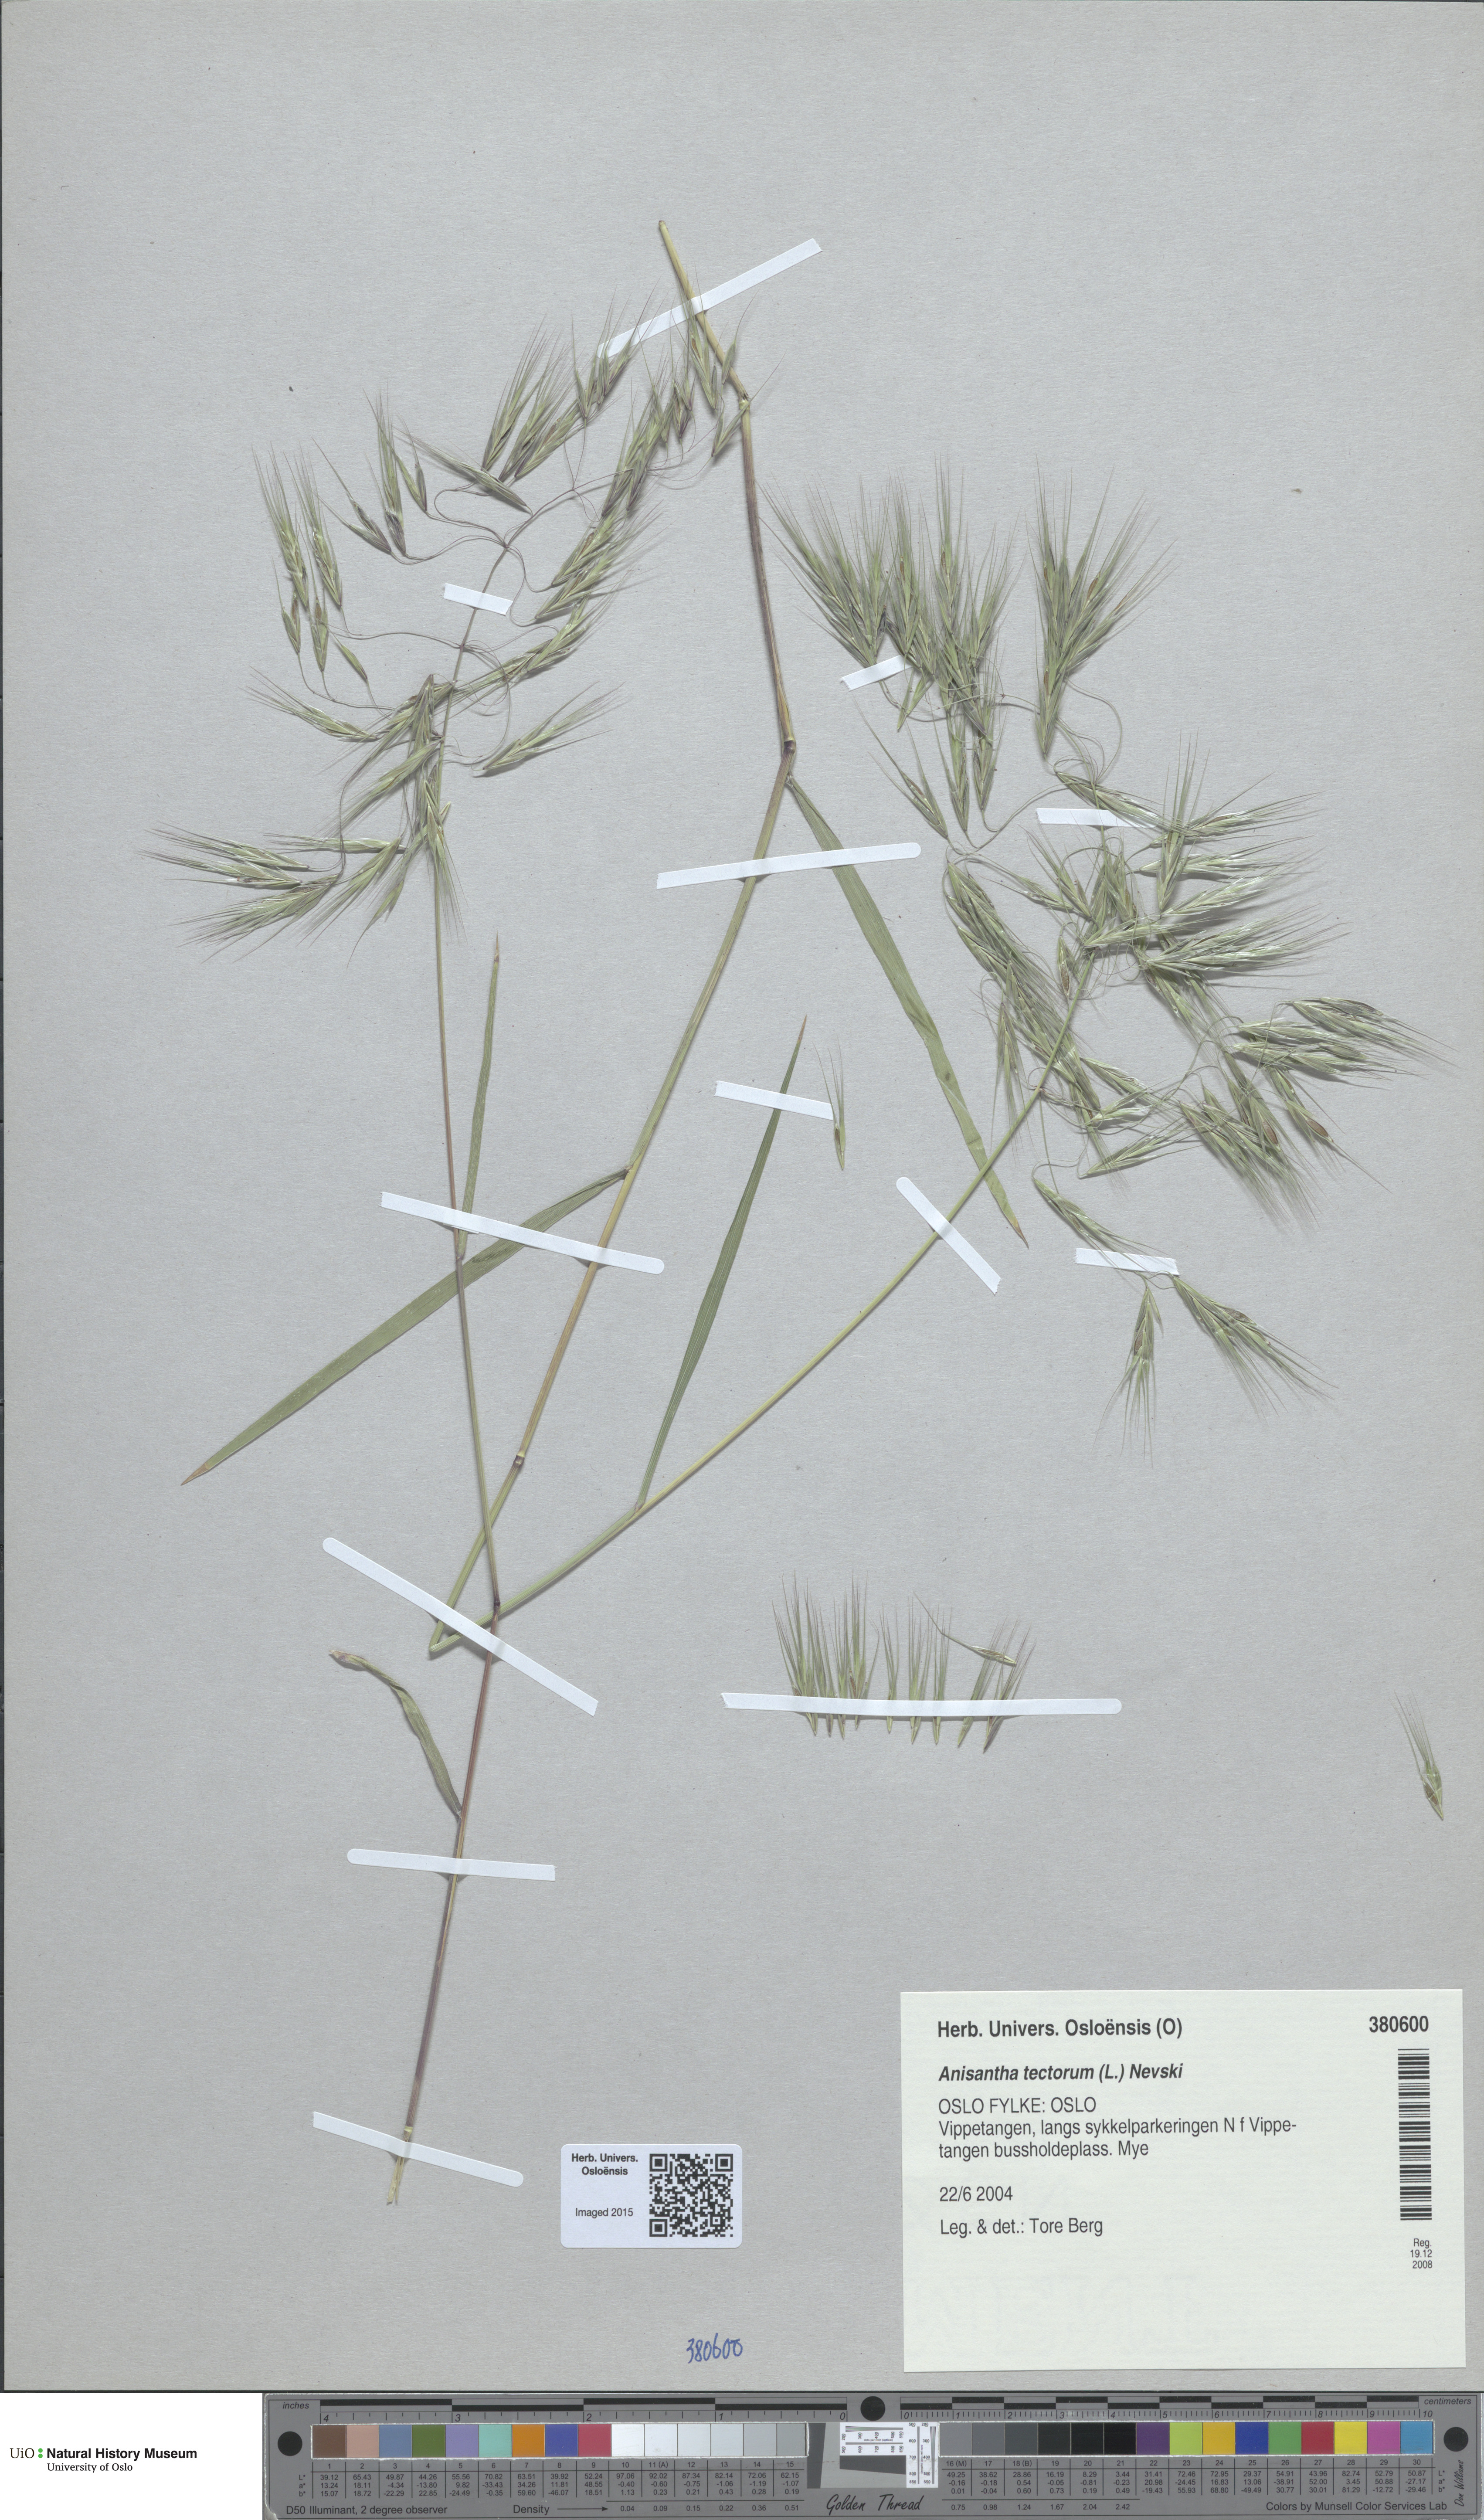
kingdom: Plantae
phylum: Tracheophyta
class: Liliopsida
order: Poales
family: Poaceae
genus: Bromus
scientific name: Bromus tectorum
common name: Cheatgrass
